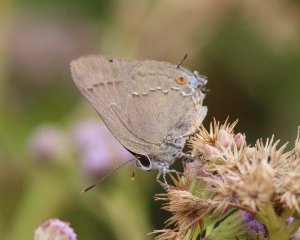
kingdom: Animalia
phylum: Arthropoda
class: Insecta
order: Lepidoptera
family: Lycaenidae
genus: Thecla
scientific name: Thecla strophius
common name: Strophius Hairstreak
